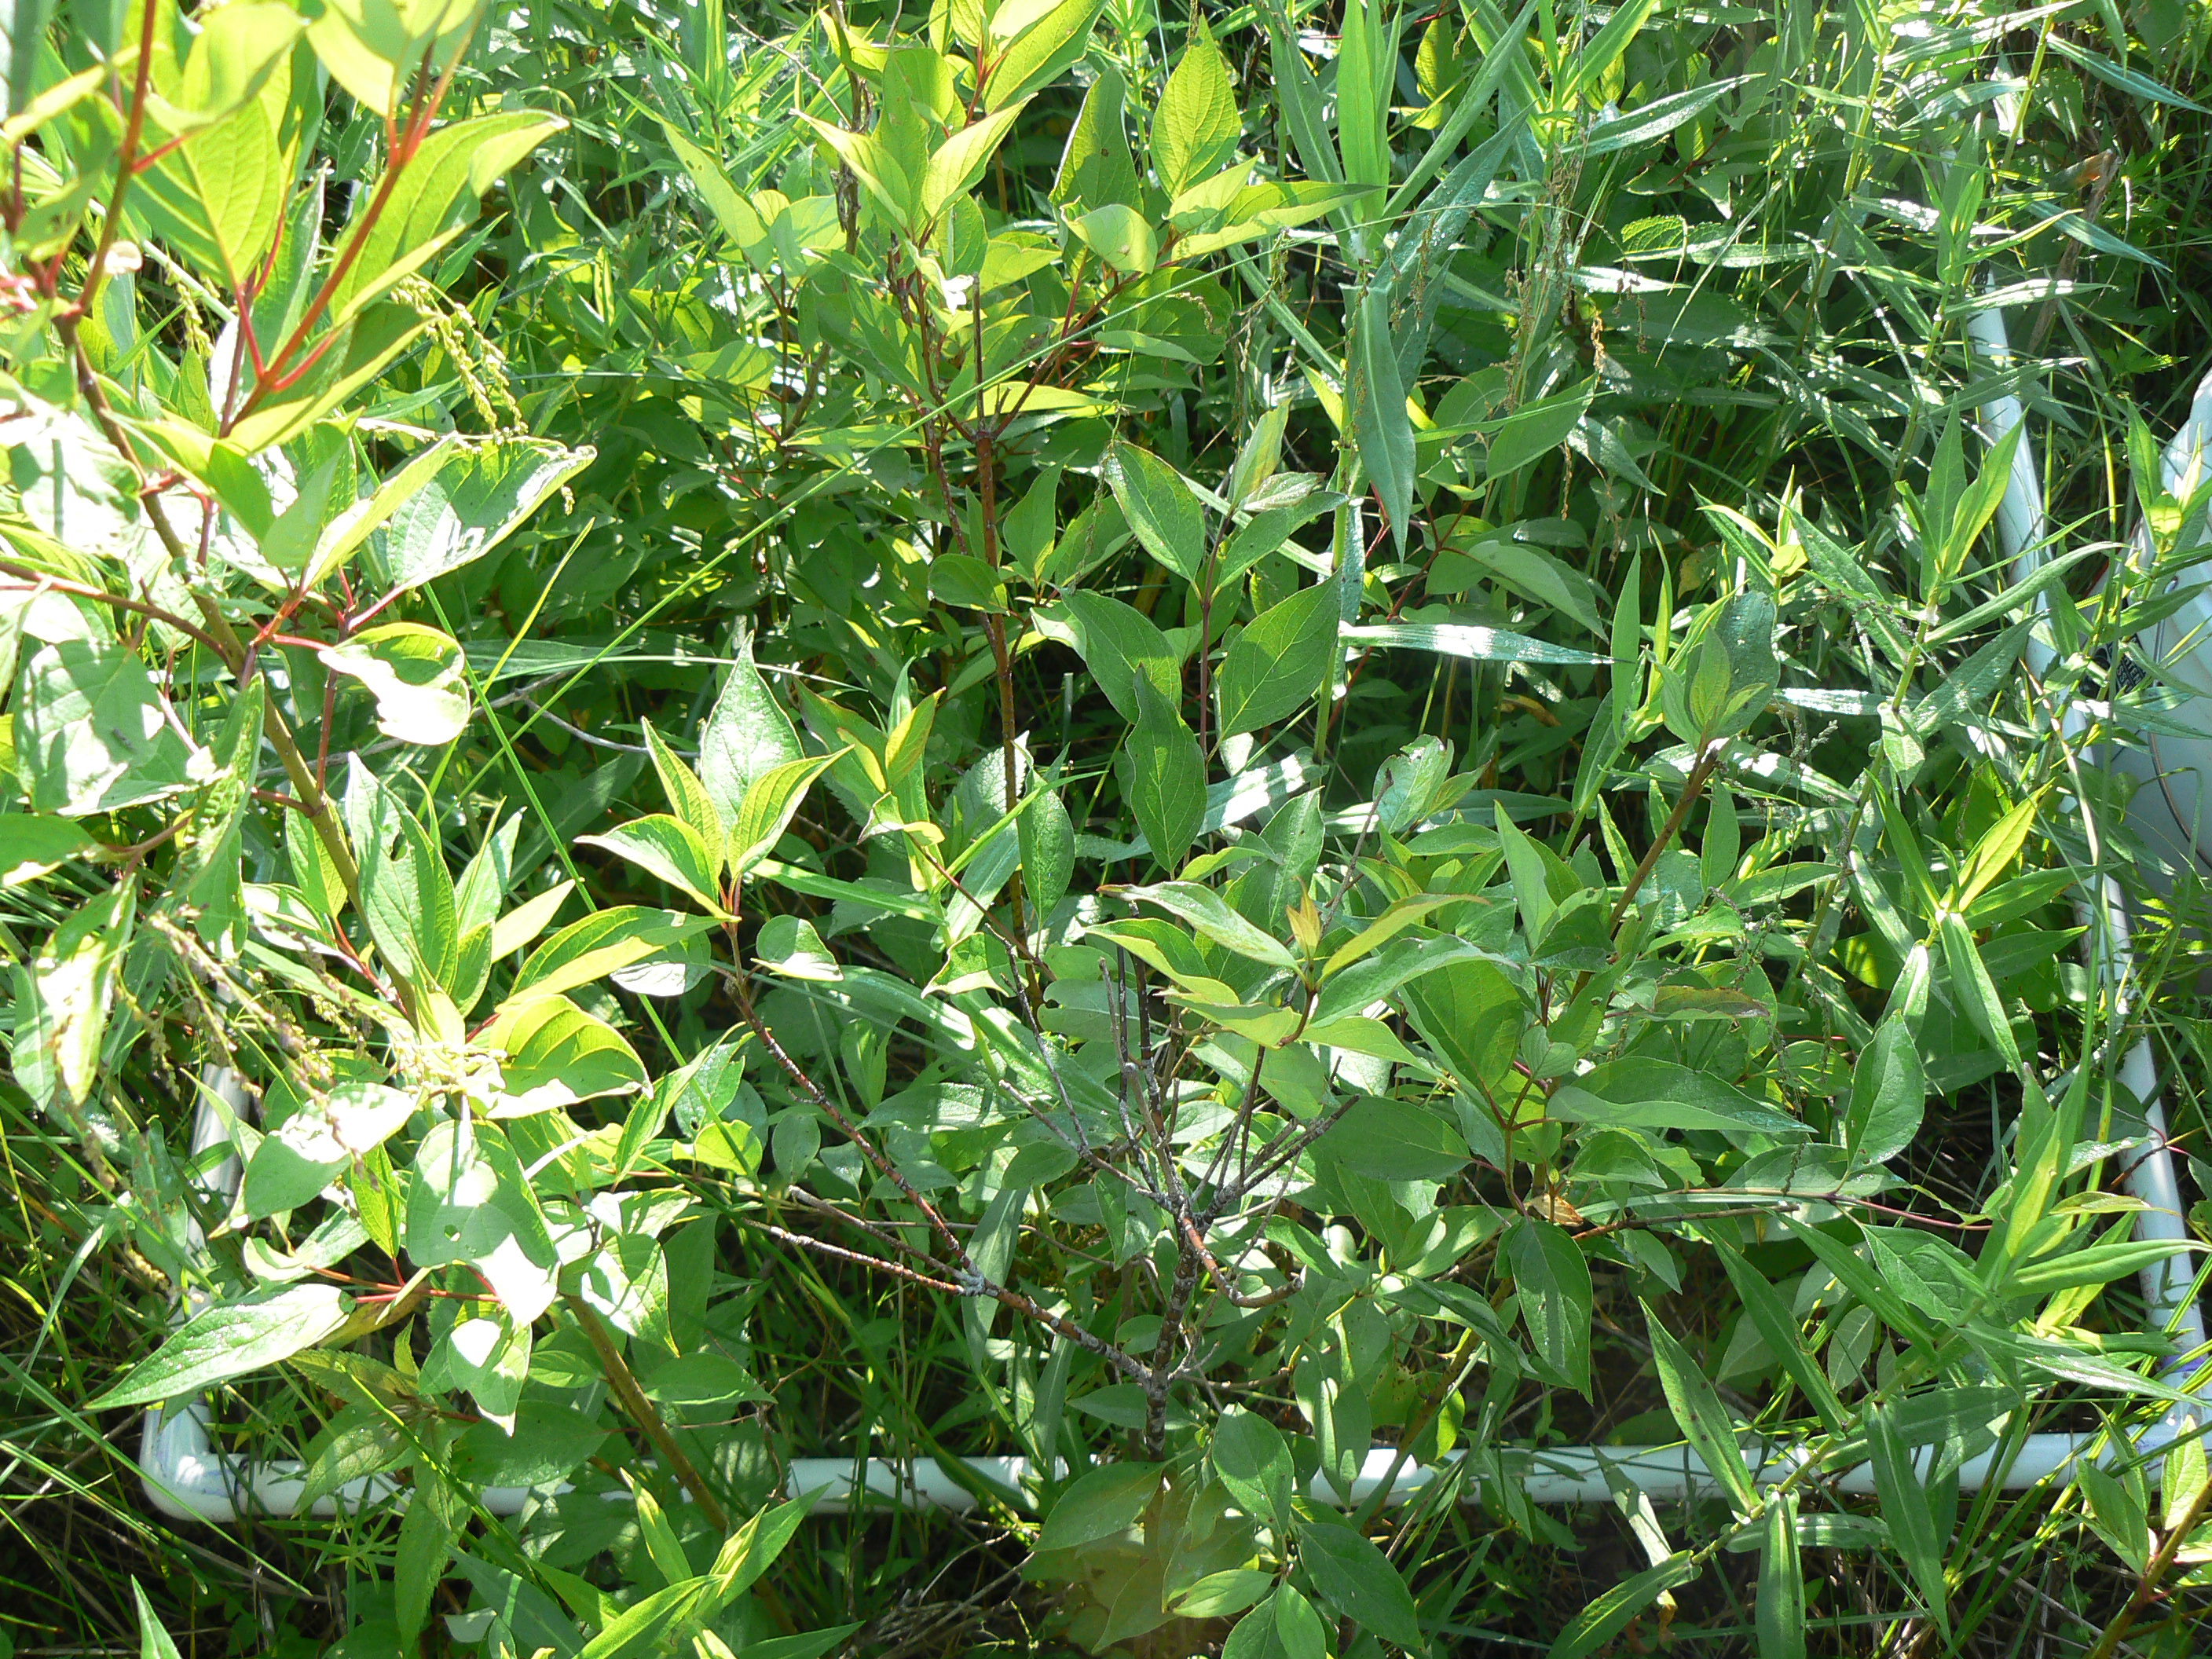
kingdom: Plantae
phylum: Tracheophyta
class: Magnoliopsida
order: Asterales
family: Campanulaceae
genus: Palustricodon
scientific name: Palustricodon aparinoides
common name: Bedstraw bellflower
